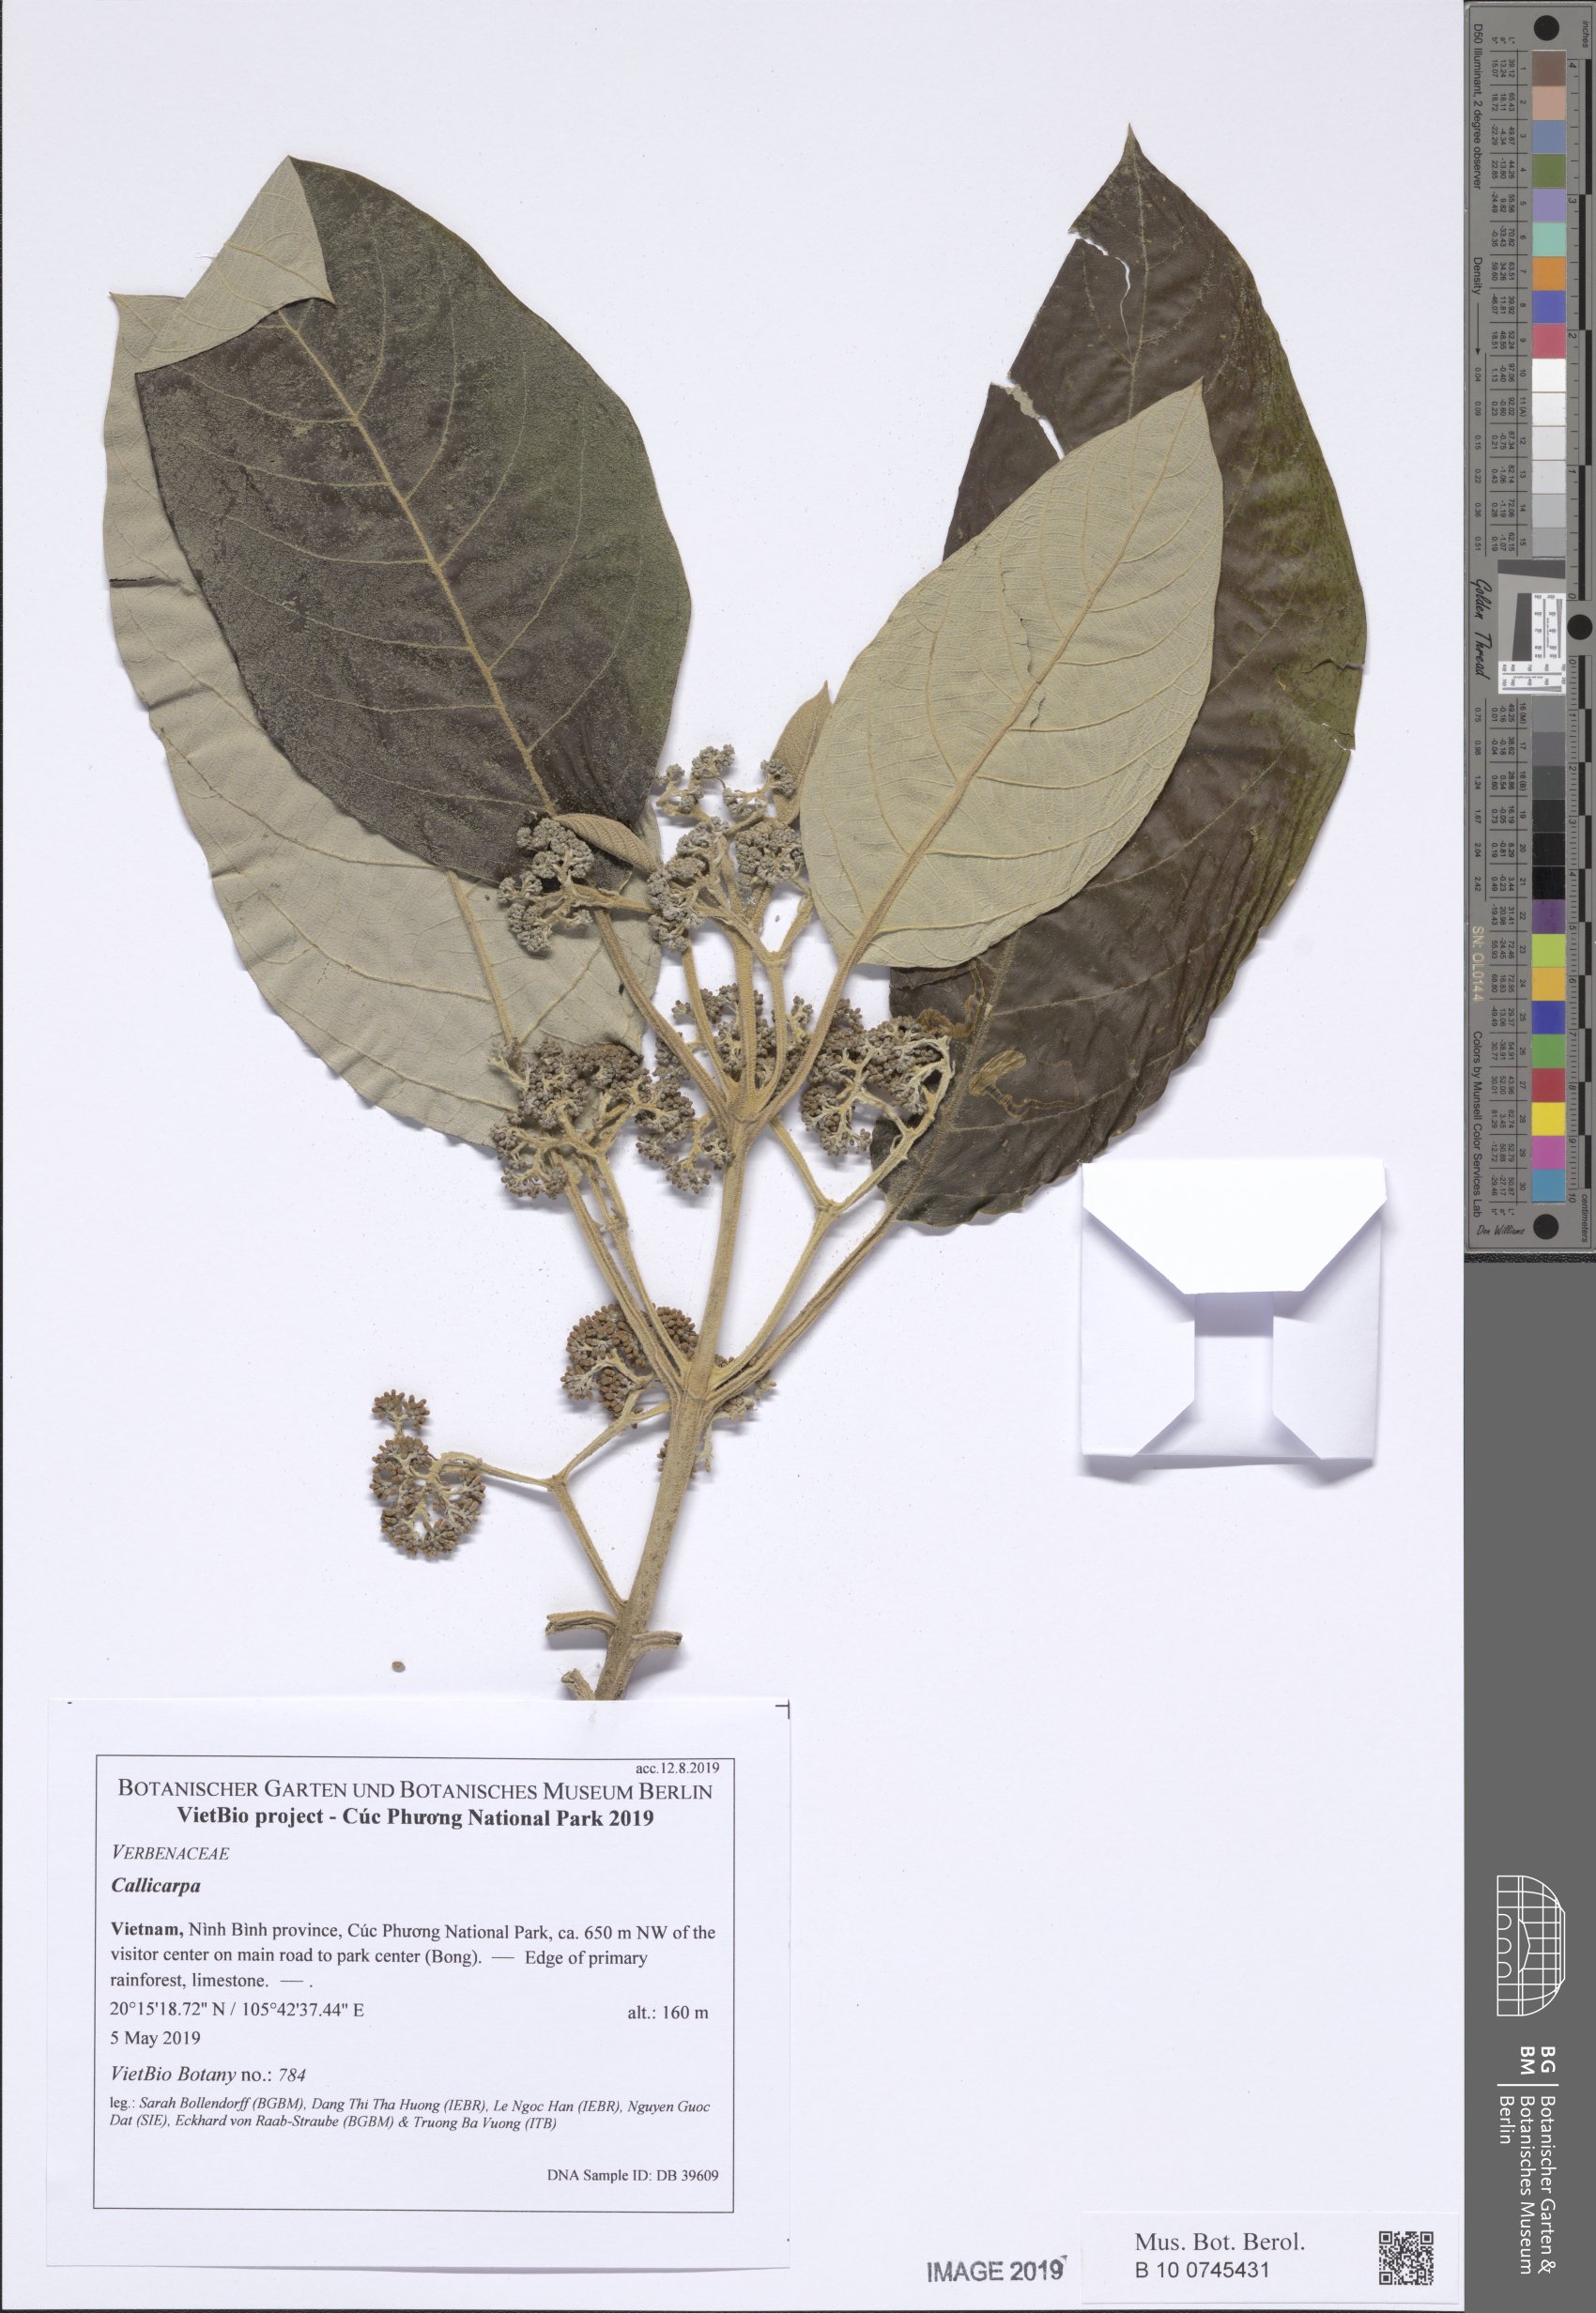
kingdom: Plantae
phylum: Tracheophyta
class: Magnoliopsida
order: Lamiales
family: Lamiaceae
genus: Callicarpa
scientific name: Callicarpa macrophylla
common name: Urn-fruit beauty-berry
